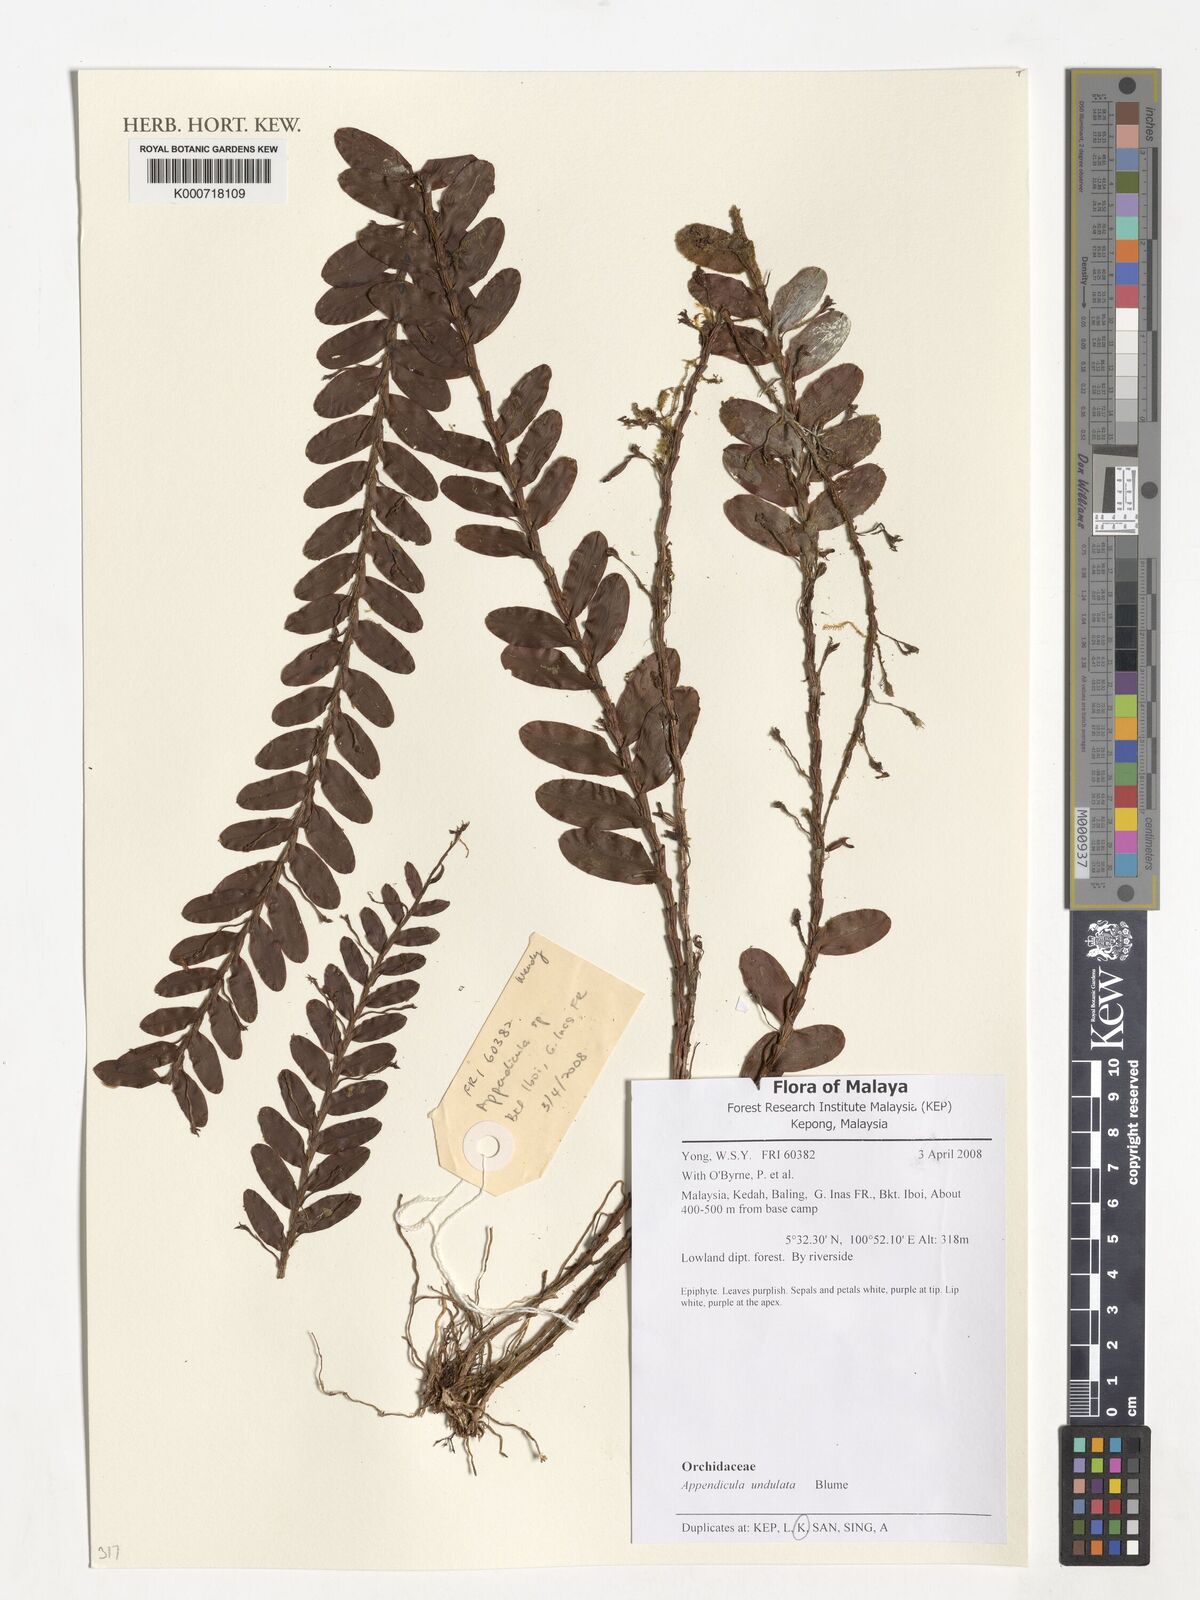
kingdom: Plantae
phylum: Tracheophyta
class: Liliopsida
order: Asparagales
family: Orchidaceae
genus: Appendicula
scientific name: Appendicula undulata
